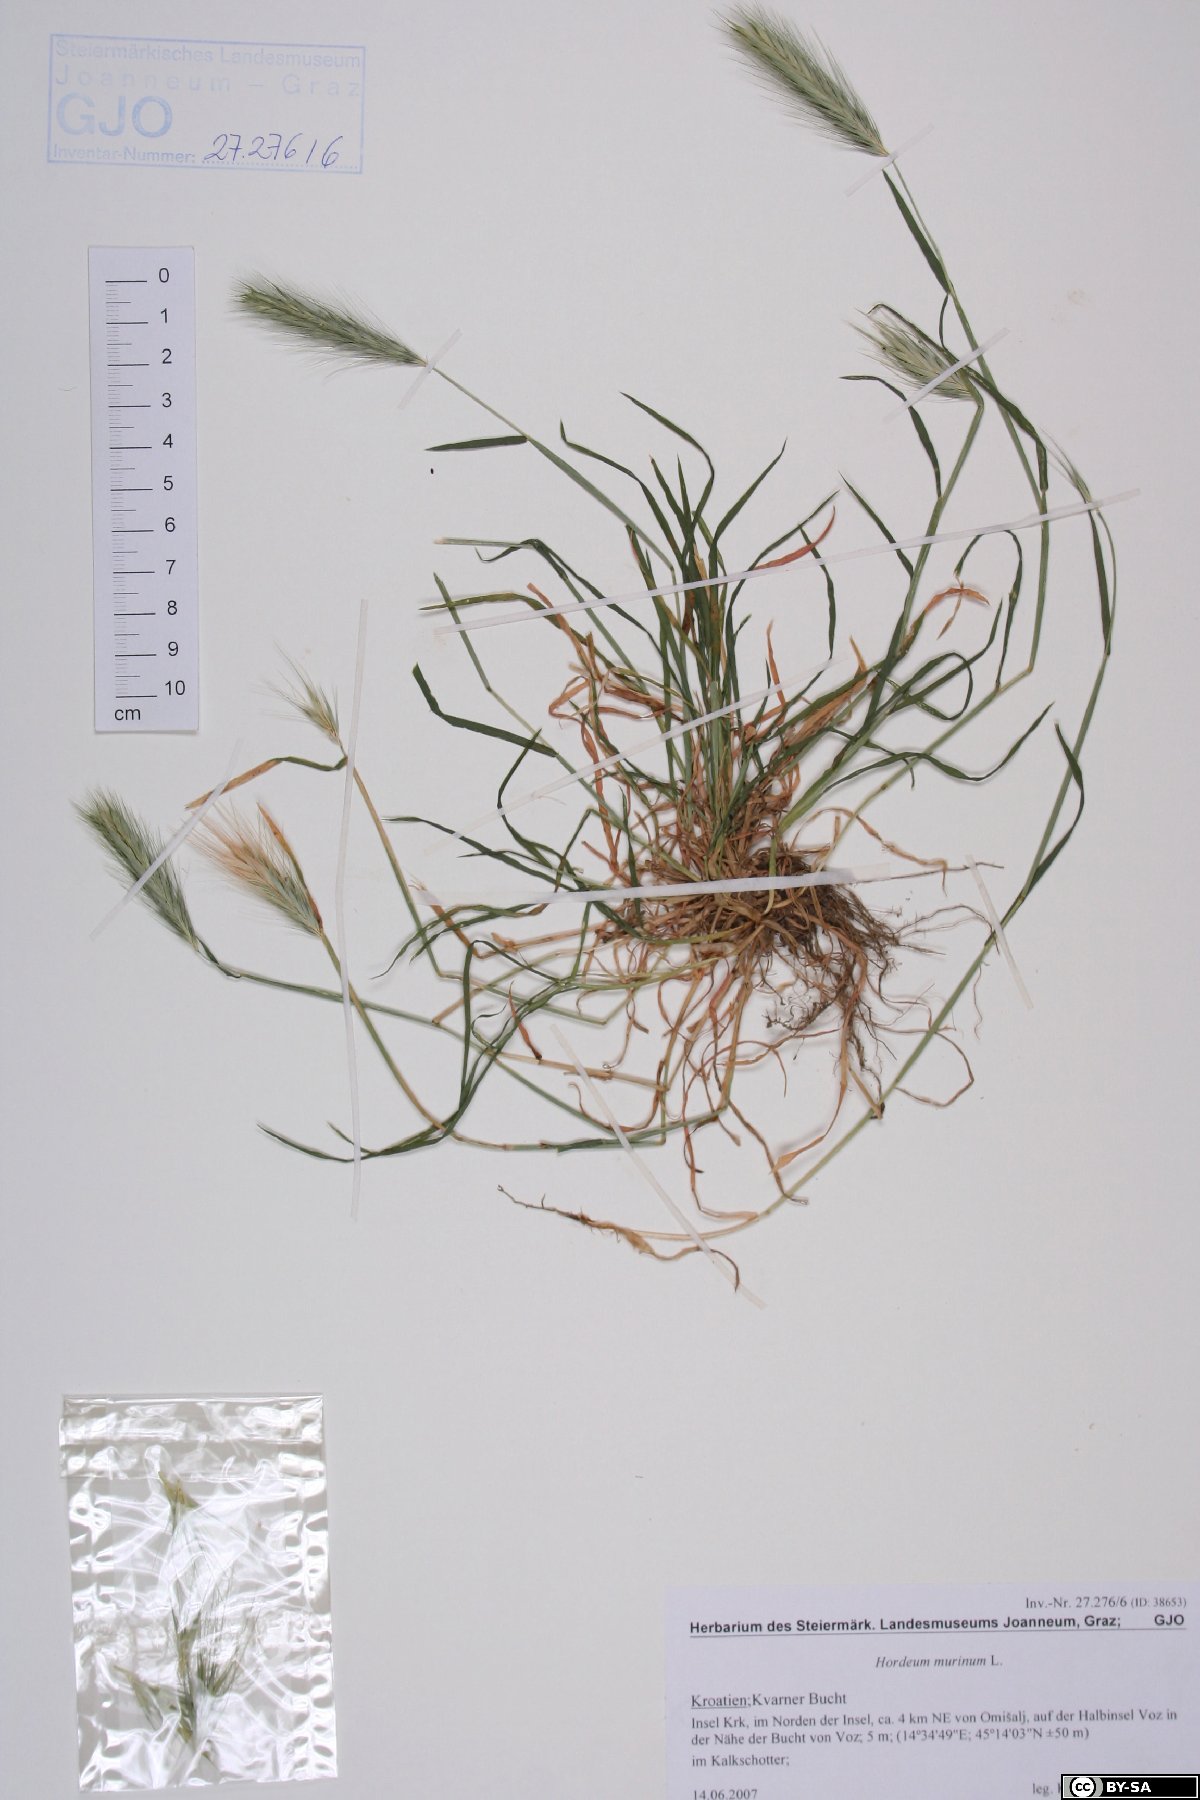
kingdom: Plantae
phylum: Tracheophyta
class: Liliopsida
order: Poales
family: Poaceae
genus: Hordeum
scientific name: Hordeum murinum
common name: Wall barley
